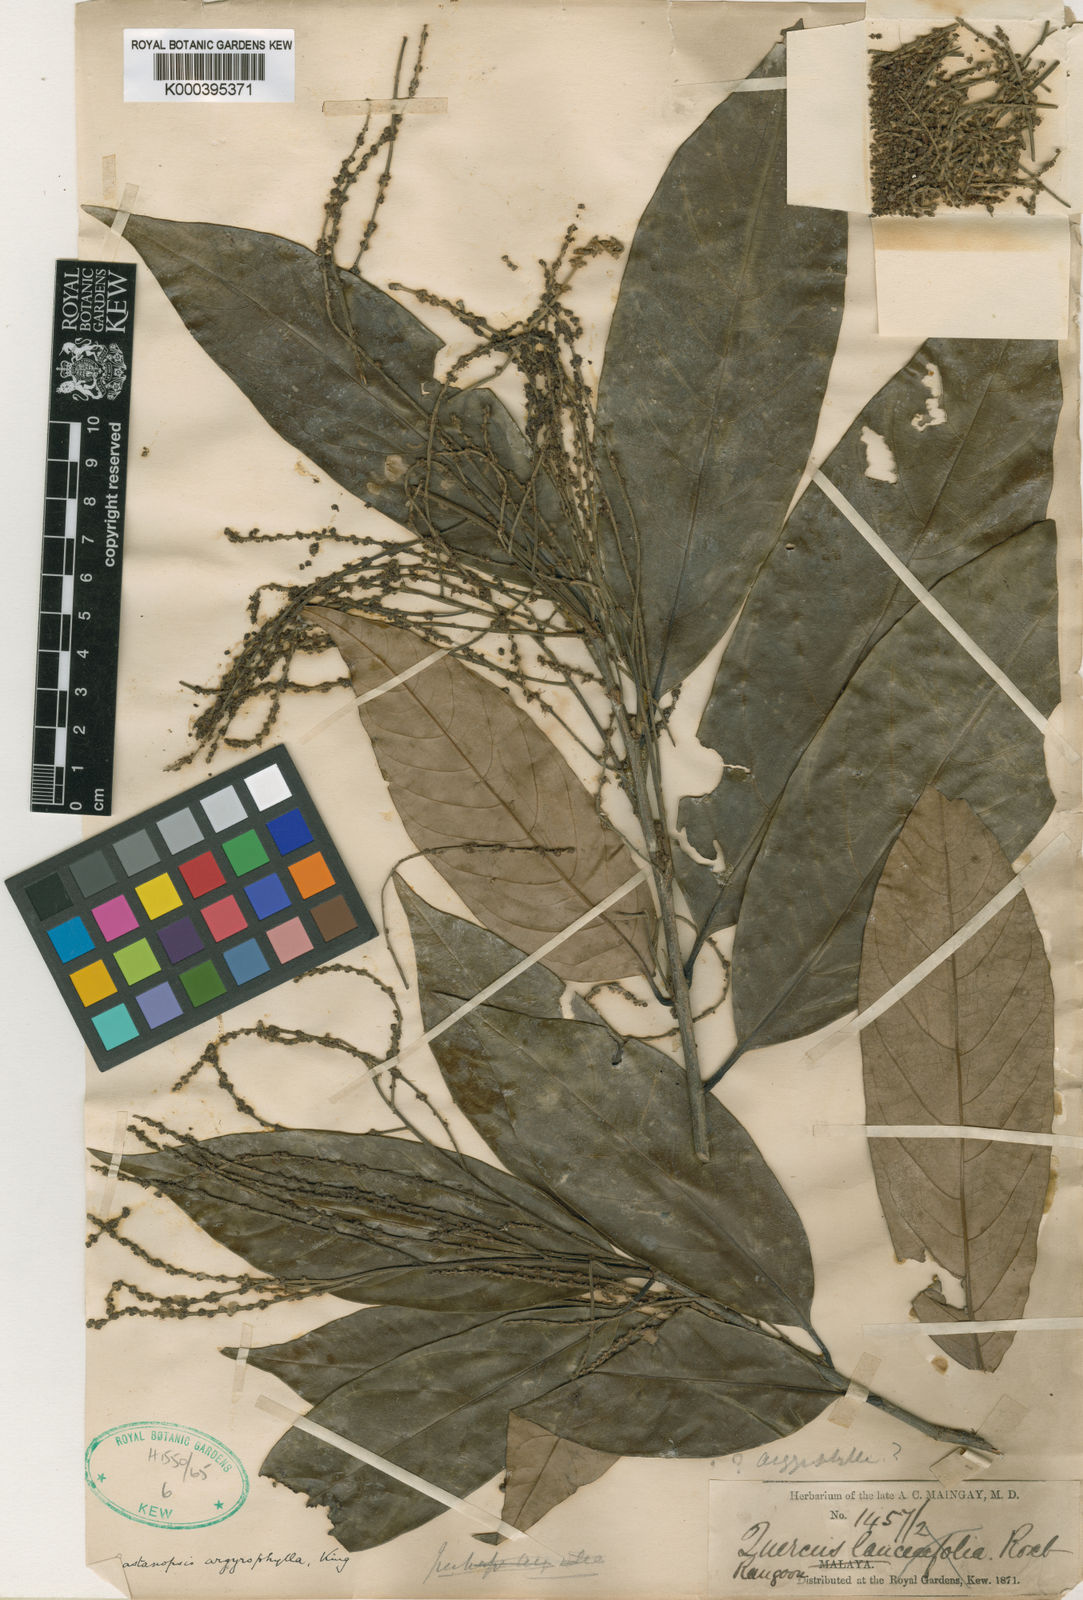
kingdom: Plantae
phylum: Tracheophyta
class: Magnoliopsida
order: Fagales
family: Fagaceae
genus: Castanopsis
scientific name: Castanopsis argyrophylla
